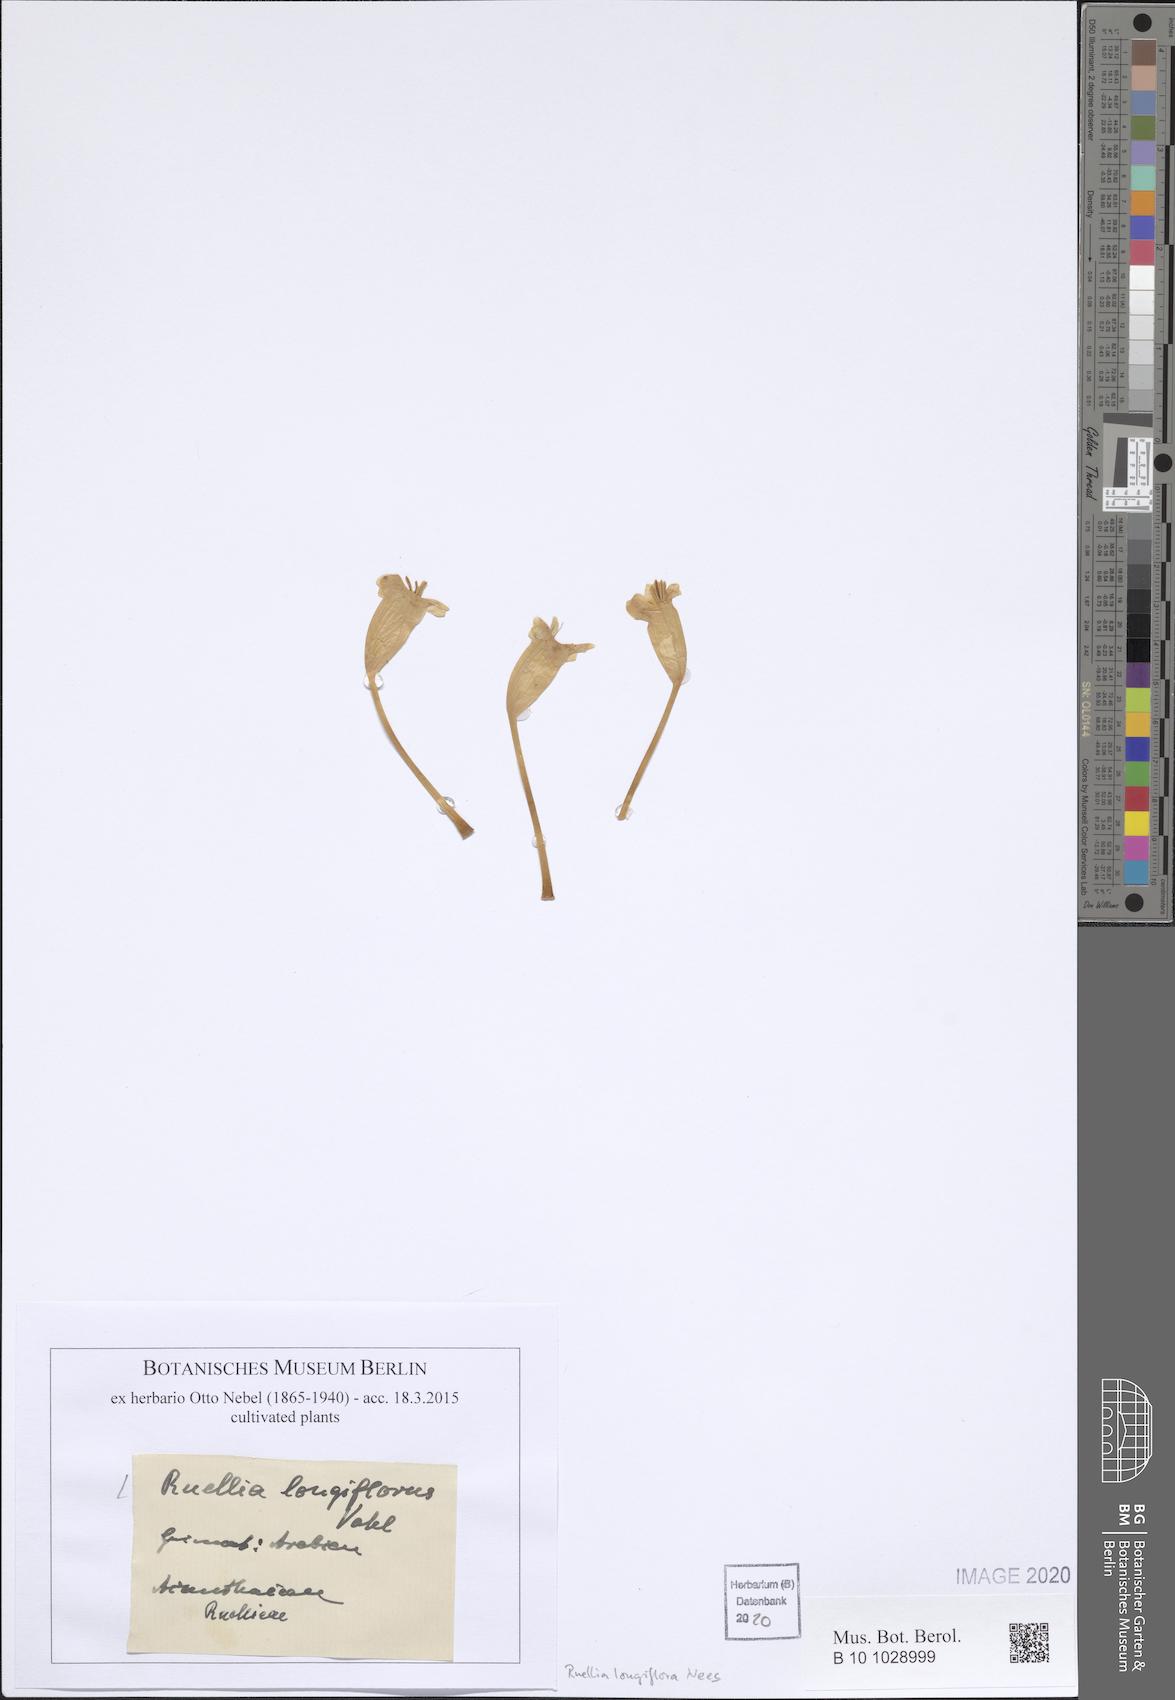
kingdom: Plantae
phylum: Tracheophyta
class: Magnoliopsida
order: Lamiales
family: Acanthaceae
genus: Ruellia
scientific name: Ruellia serrana
